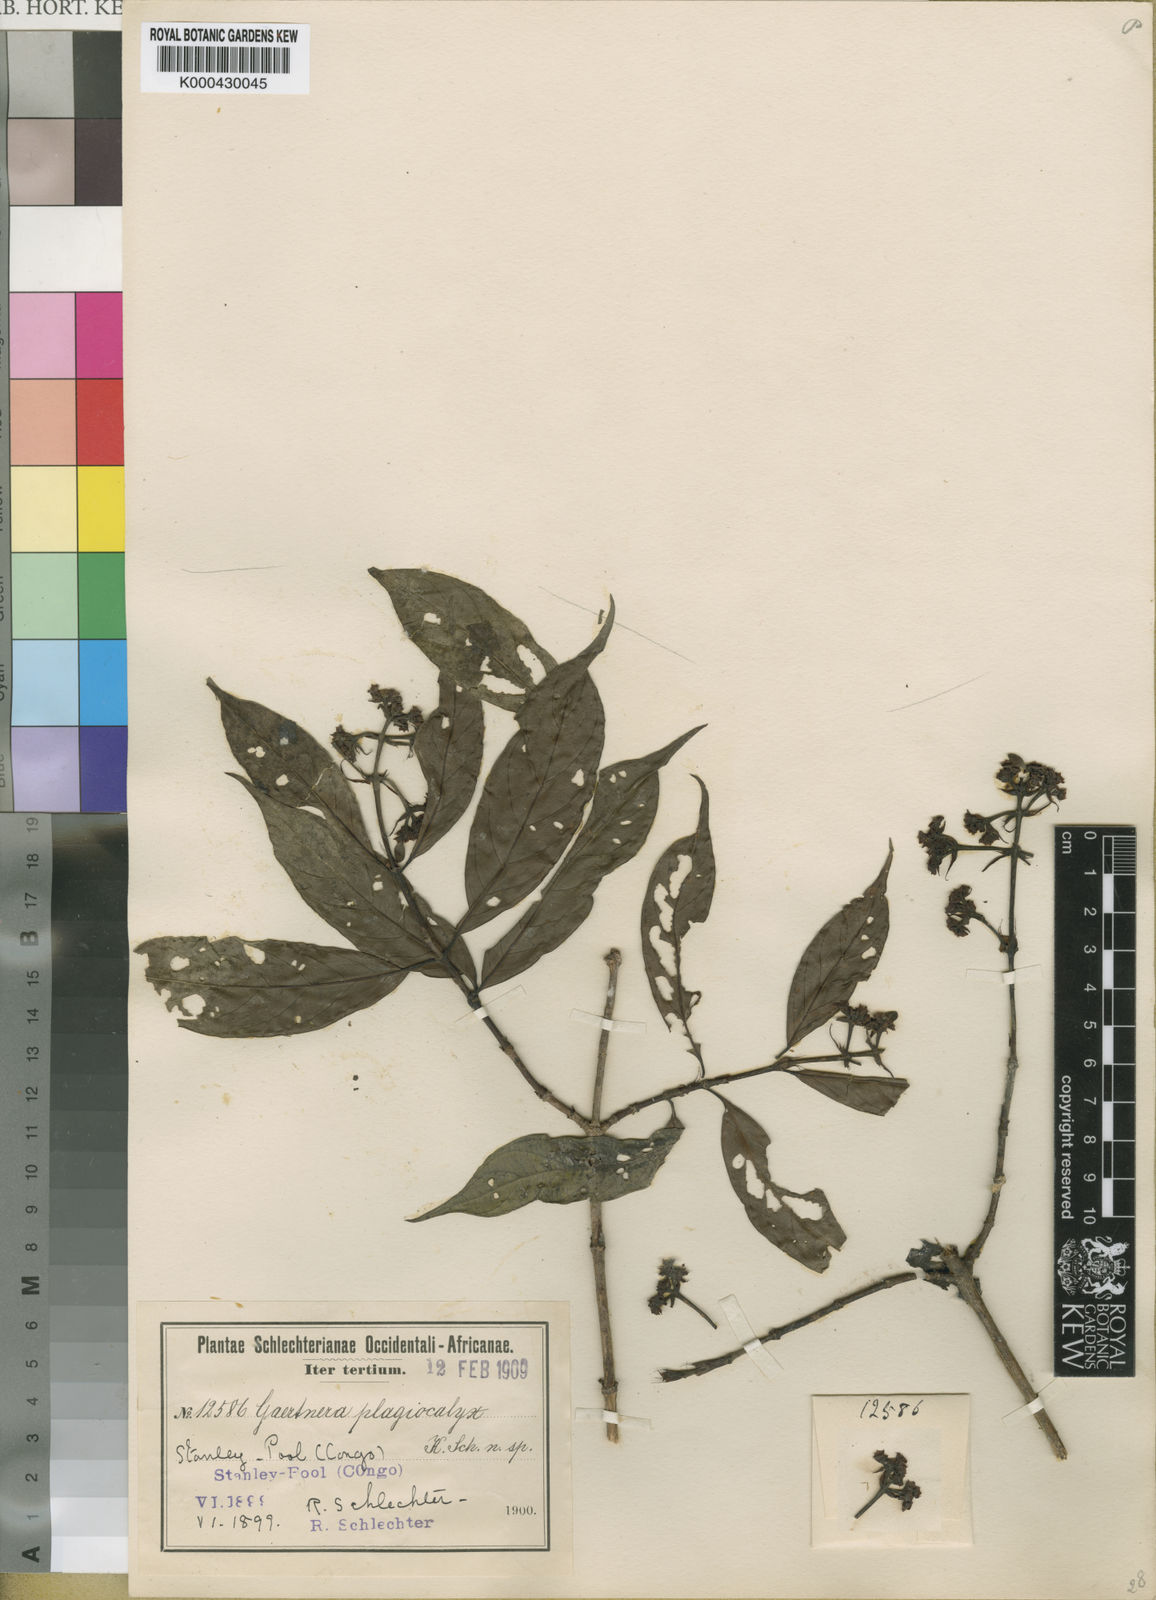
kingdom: Plantae
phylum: Tracheophyta
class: Magnoliopsida
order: Gentianales
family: Rubiaceae
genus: Gaertnera
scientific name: Gaertnera
